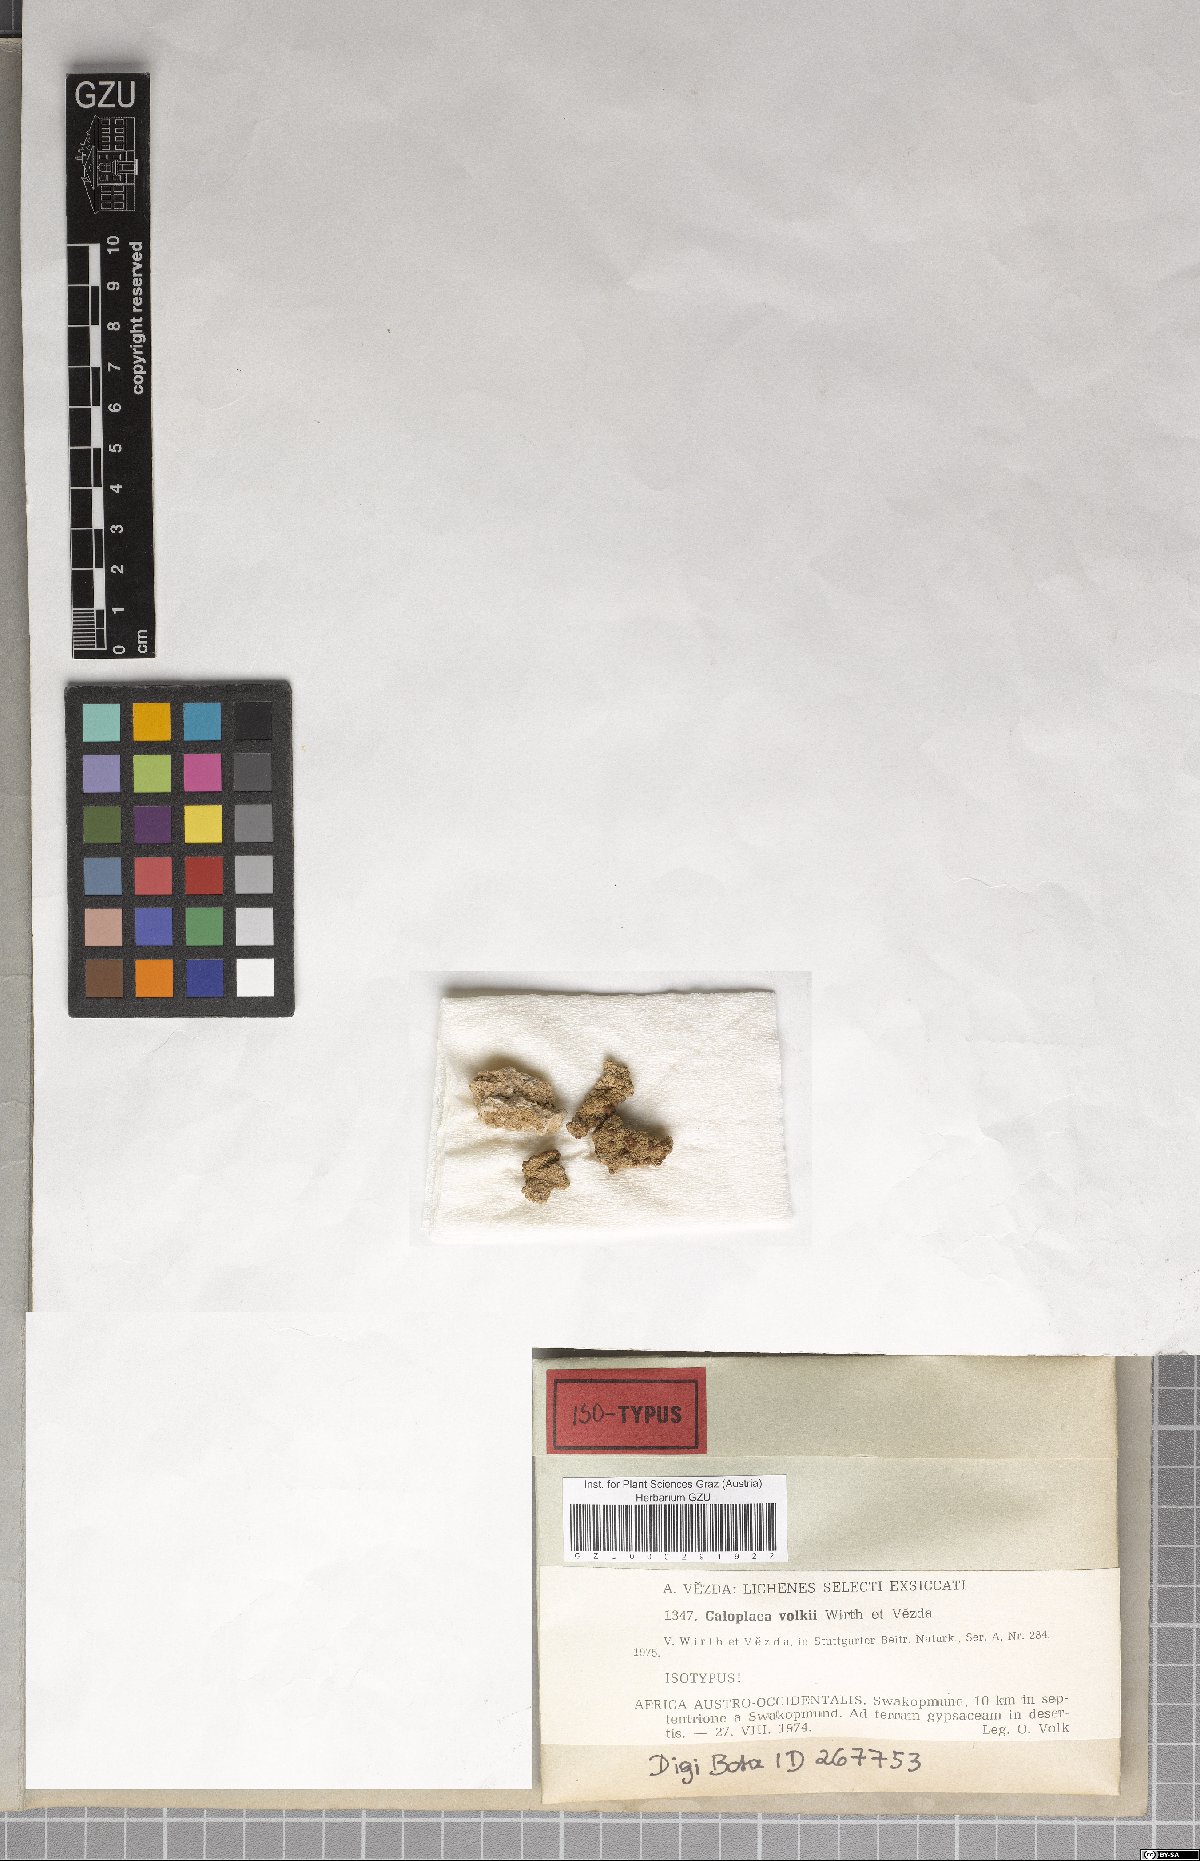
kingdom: Fungi
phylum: Ascomycota
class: Lecanoromycetes
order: Teloschistales
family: Teloschistaceae
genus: Caloplaca
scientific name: Caloplaca
